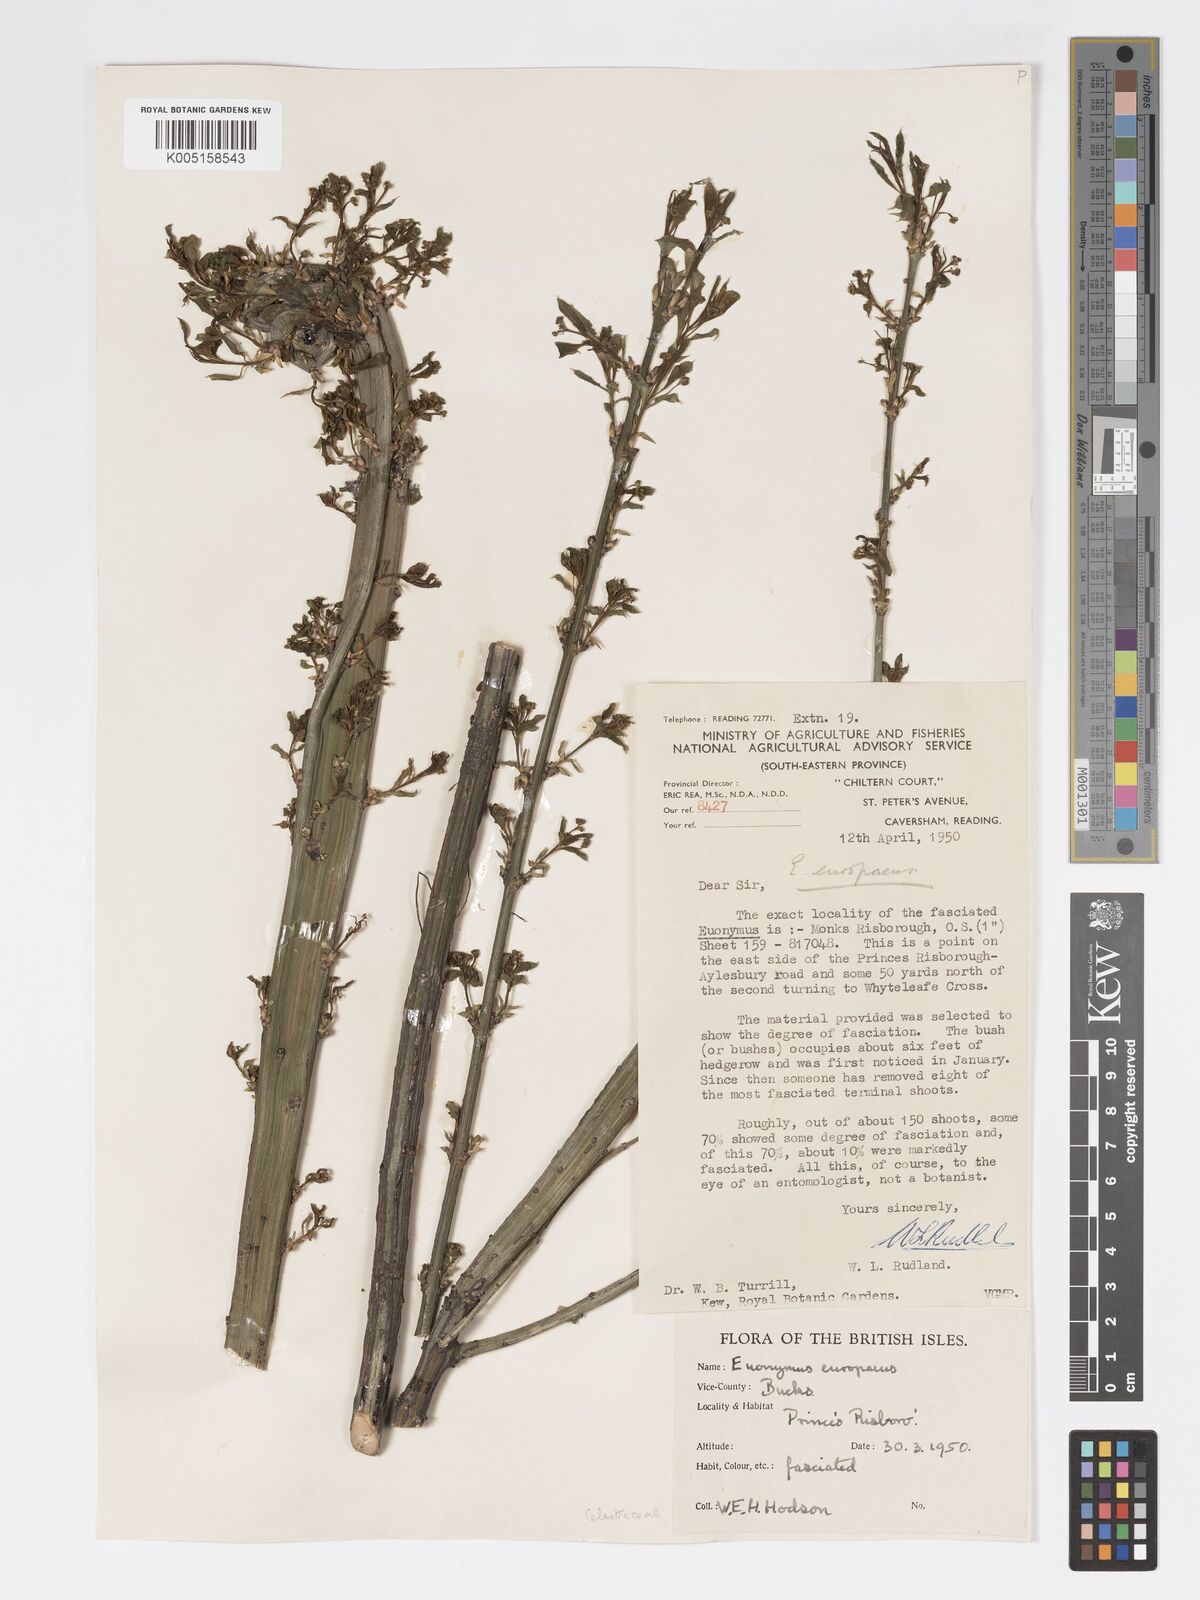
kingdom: Plantae
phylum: Tracheophyta
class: Magnoliopsida
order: Celastrales
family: Celastraceae
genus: Euonymus
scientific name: Euonymus
